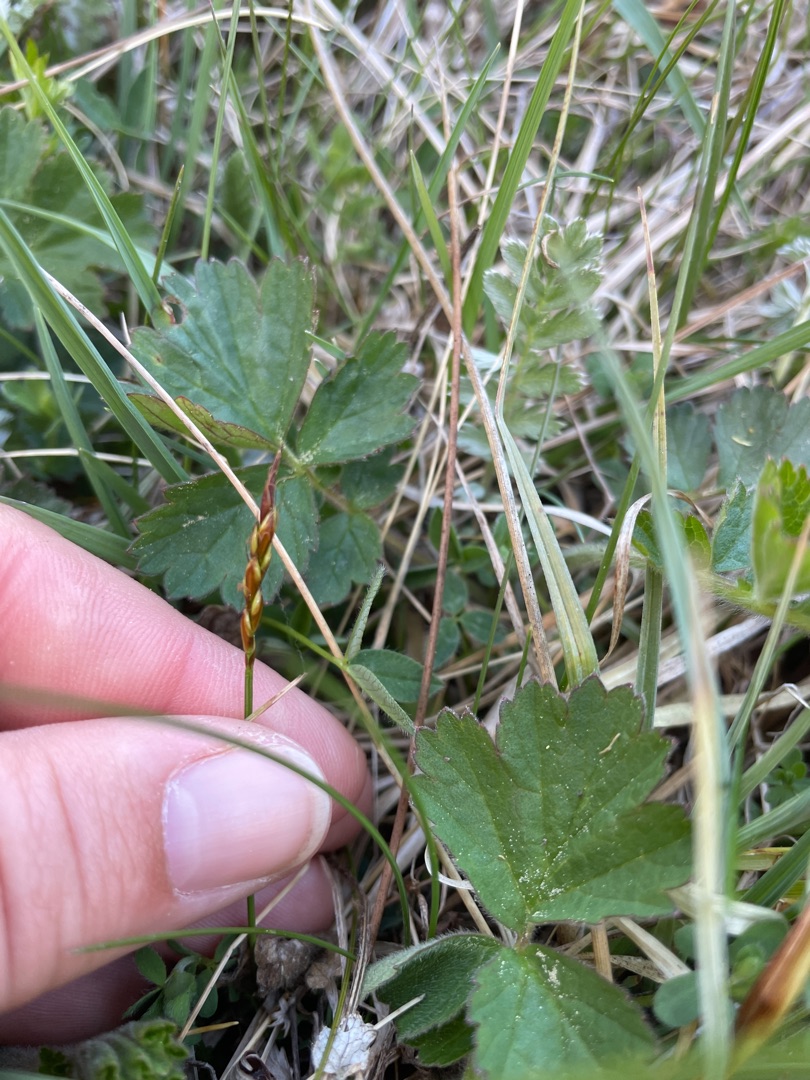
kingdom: Plantae
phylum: Tracheophyta
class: Liliopsida
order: Poales
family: Cyperaceae
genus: Carex
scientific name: Carex pulicaris
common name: Loppe-star
